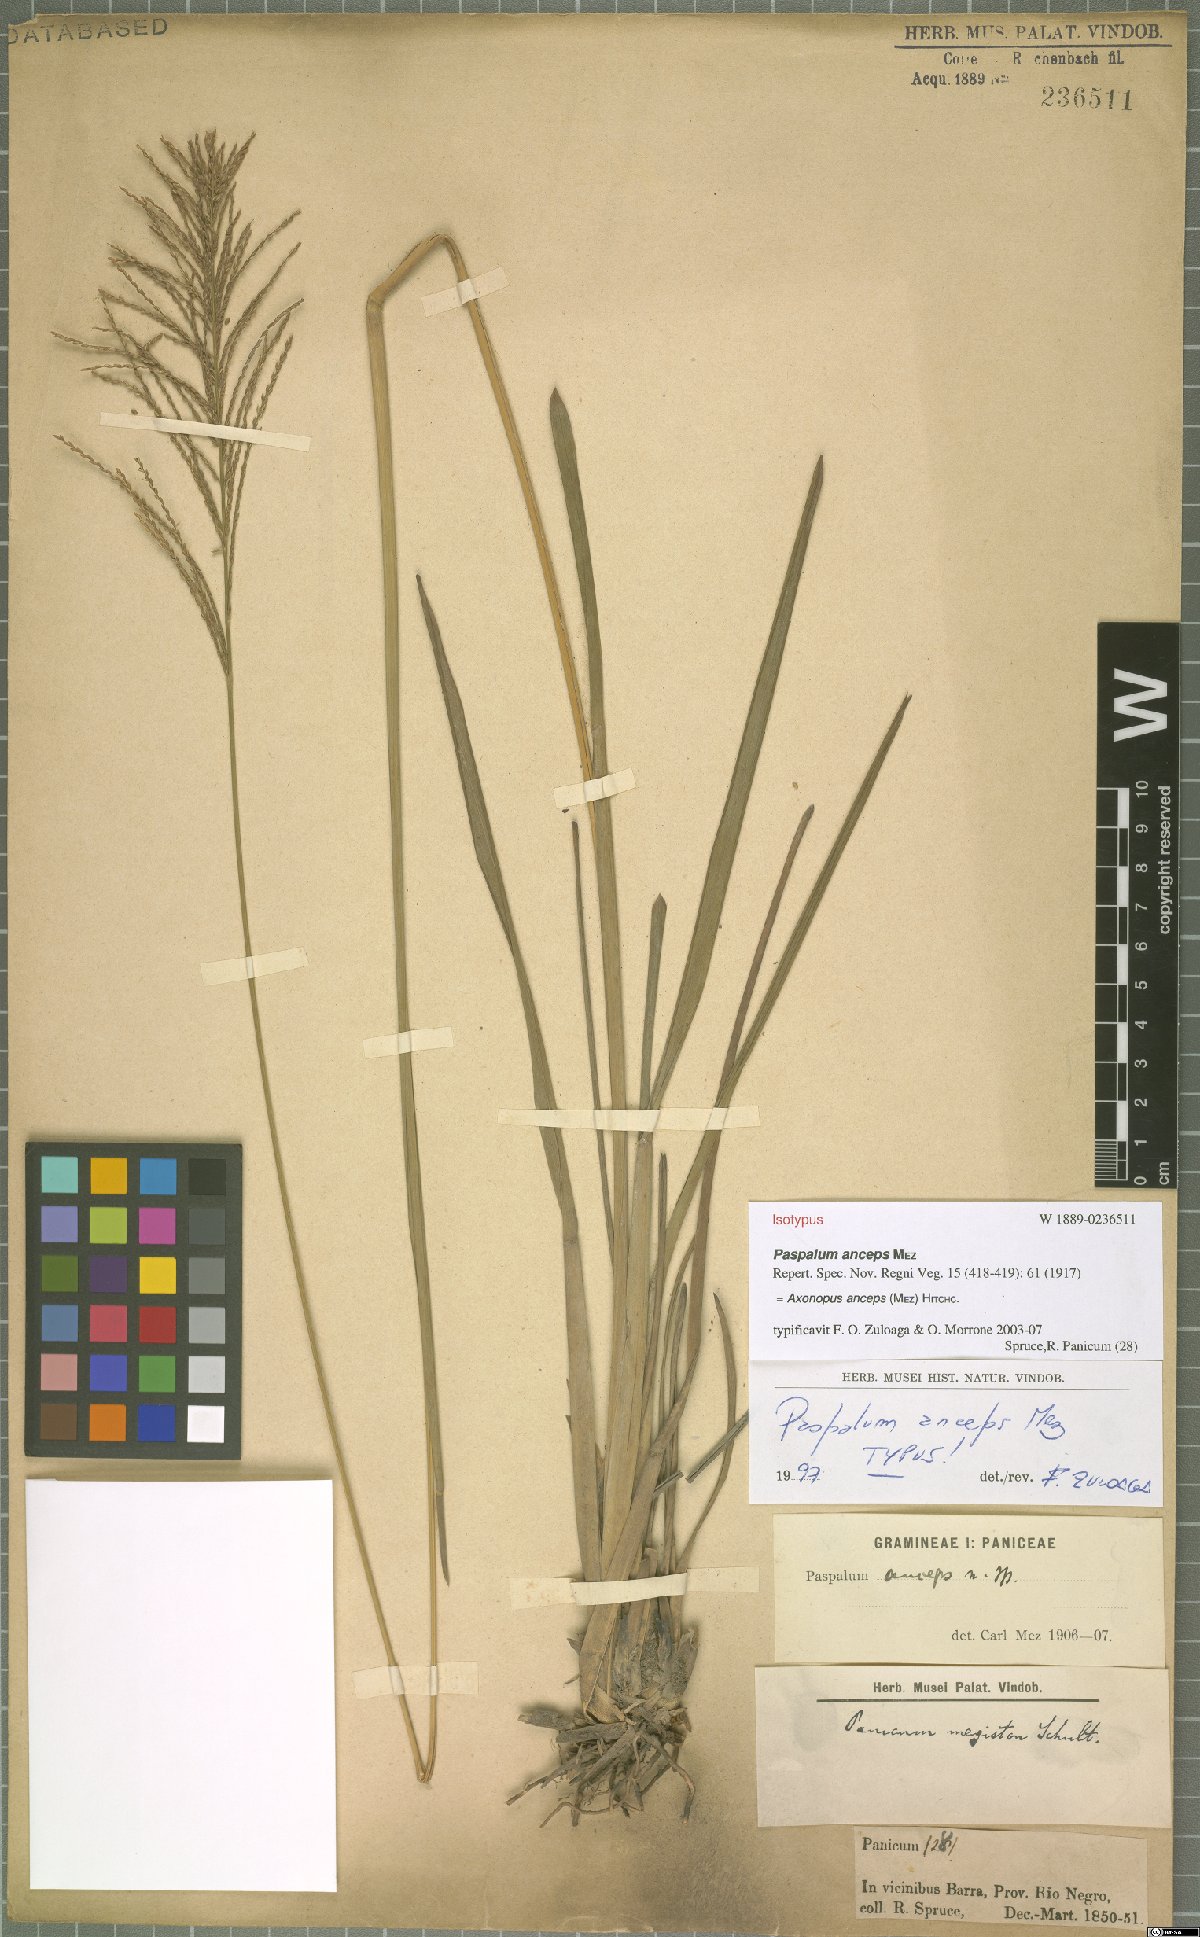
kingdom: Plantae
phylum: Tracheophyta
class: Liliopsida
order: Poales
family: Poaceae
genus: Axonopus
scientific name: Axonopus anceps
